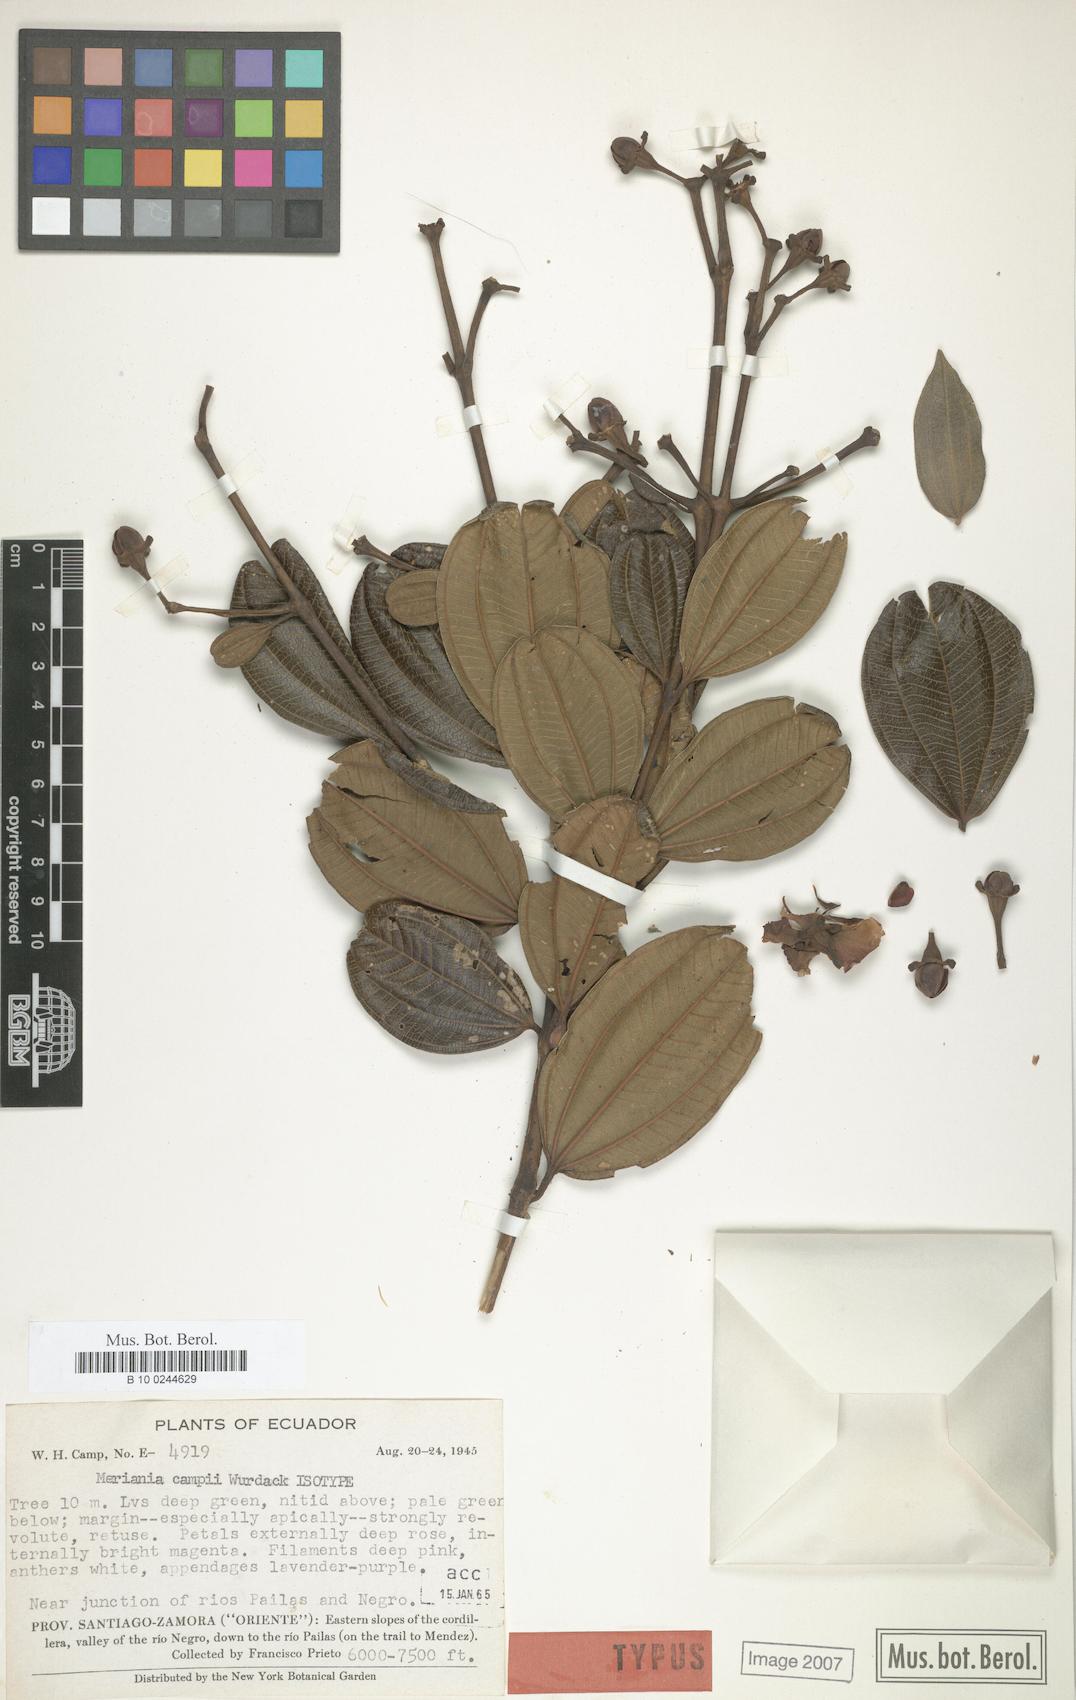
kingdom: Plantae
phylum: Tracheophyta
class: Magnoliopsida
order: Myrtales
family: Melastomataceae
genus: Meriania
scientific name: Meriania campii
